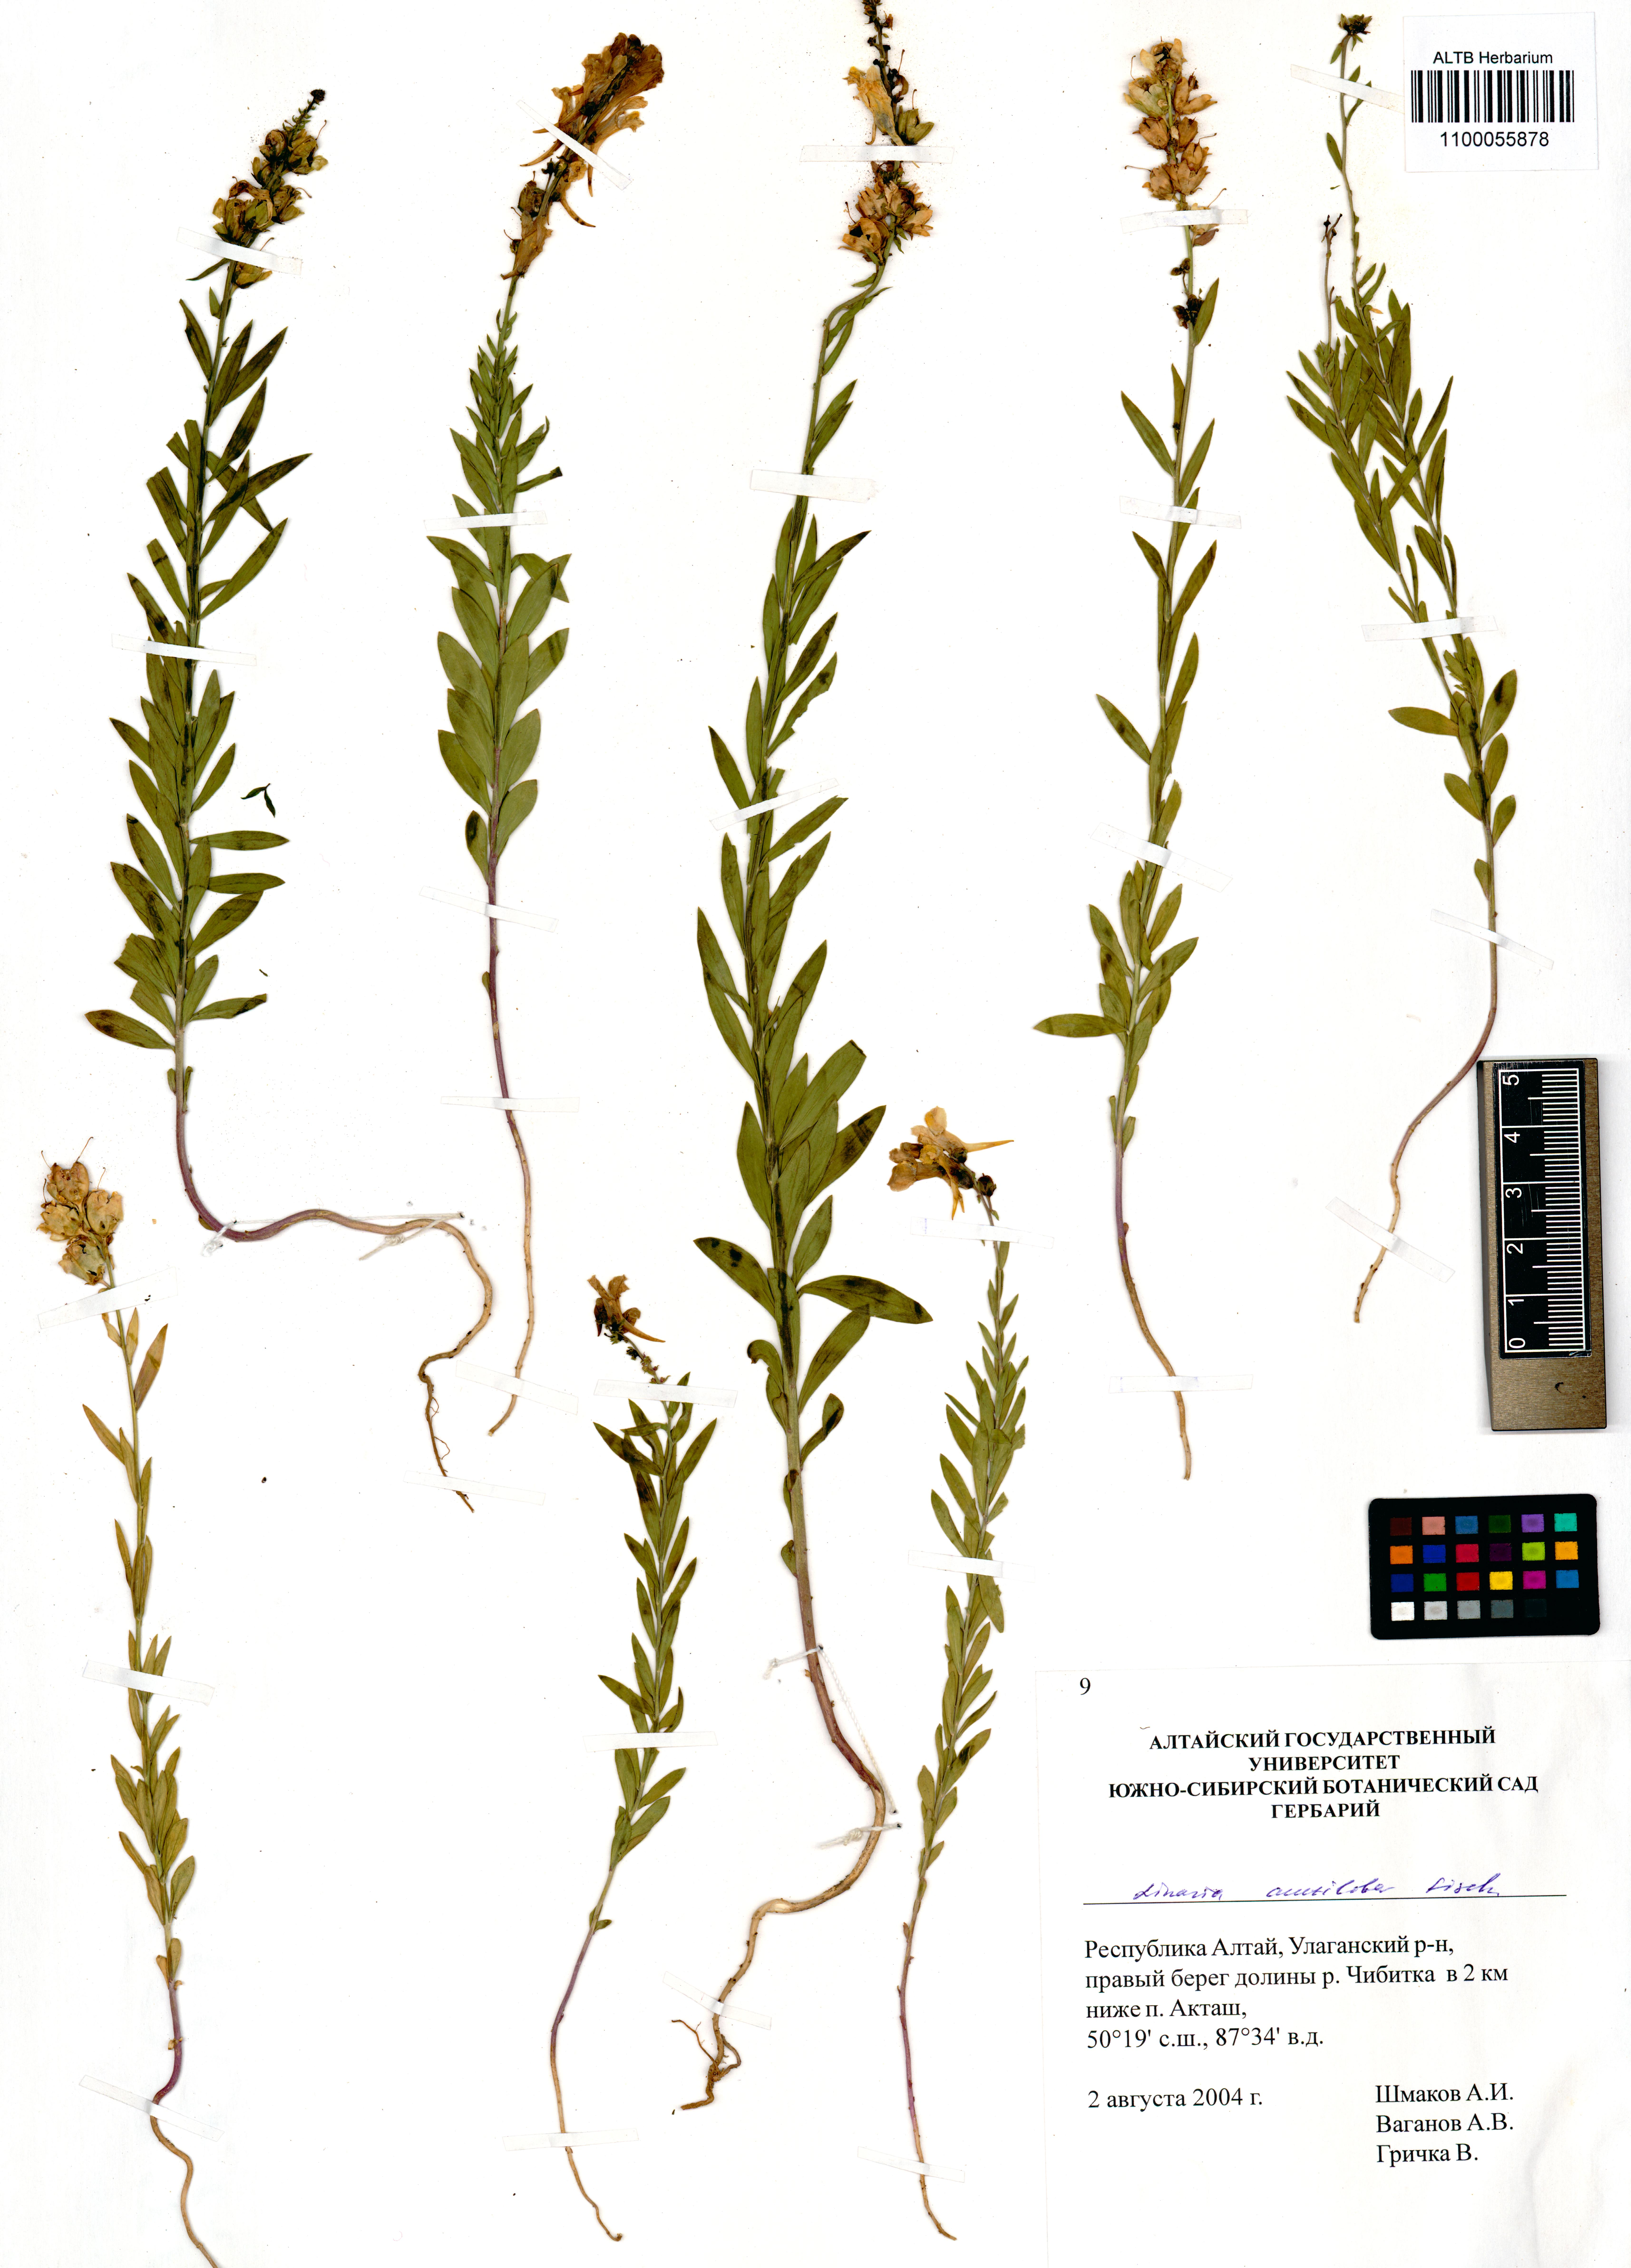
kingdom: Plantae
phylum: Tracheophyta
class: Magnoliopsida
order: Lamiales
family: Plantaginaceae
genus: Linaria
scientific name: Linaria acutiloba
